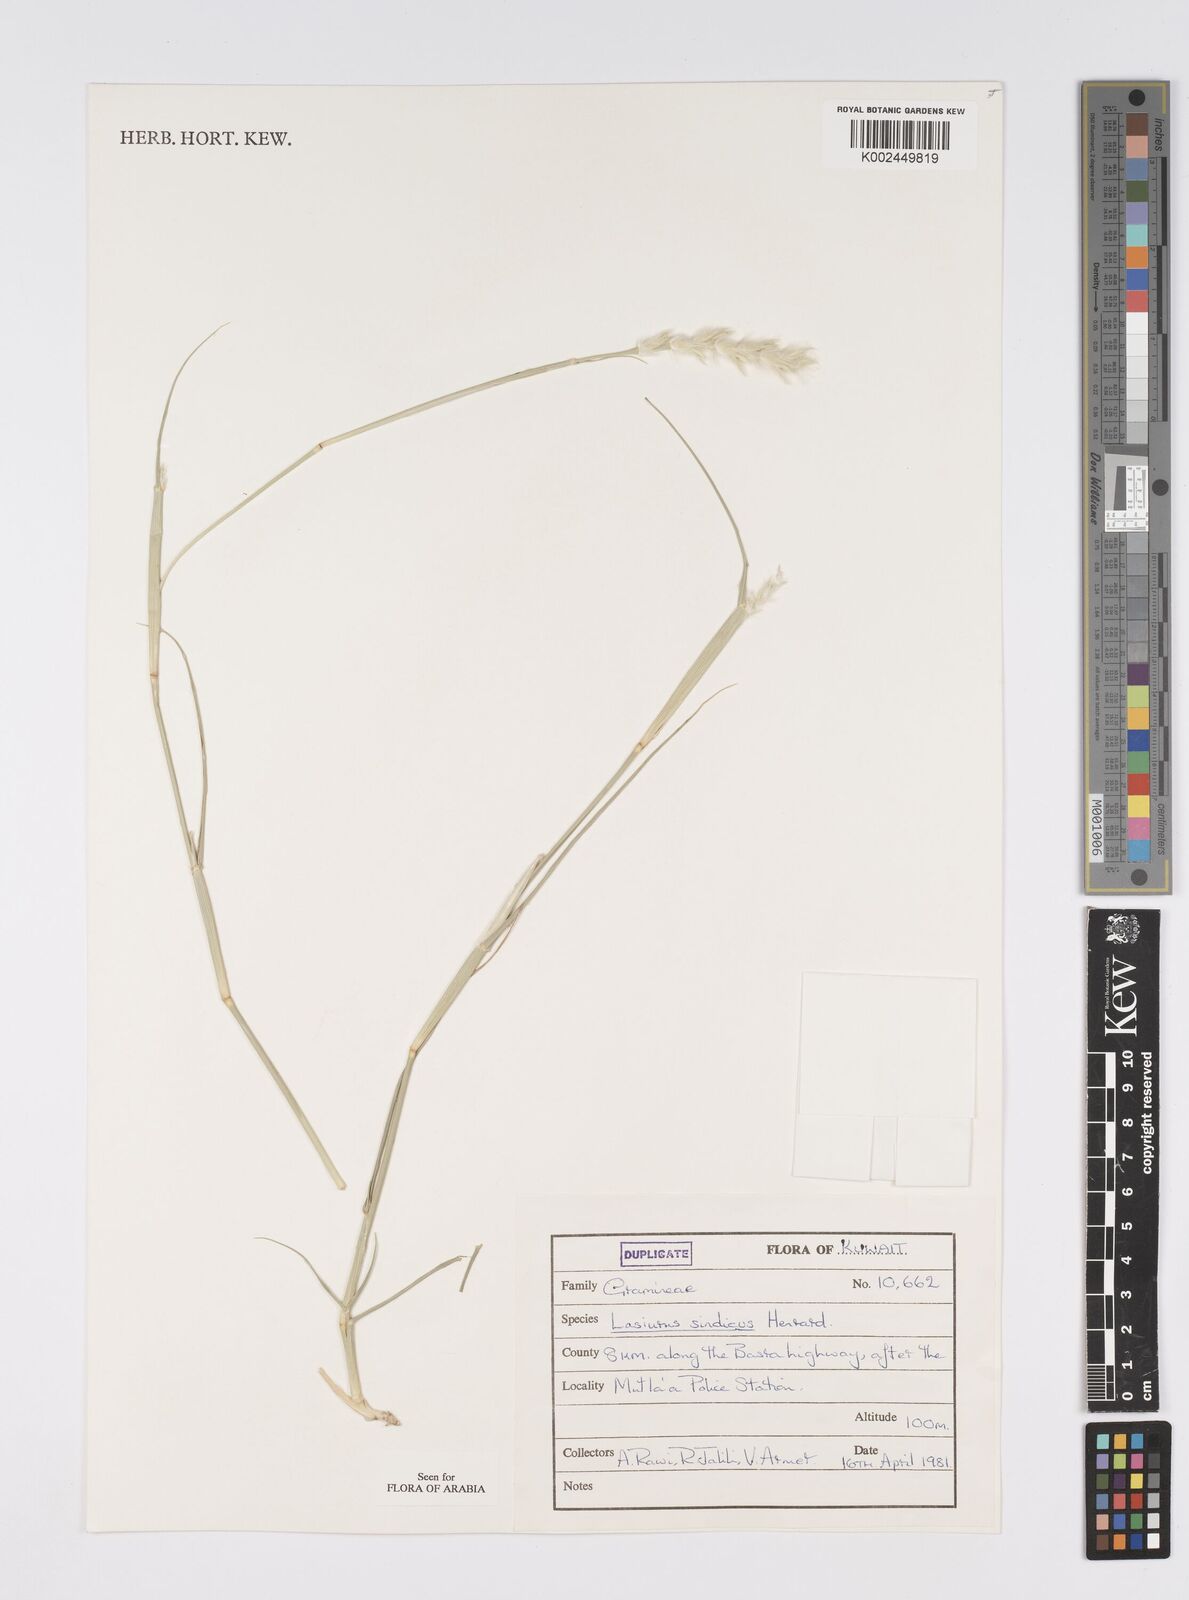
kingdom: Plantae
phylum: Tracheophyta
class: Liliopsida
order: Poales
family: Poaceae
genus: Lasiurus
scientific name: Lasiurus scindicus
